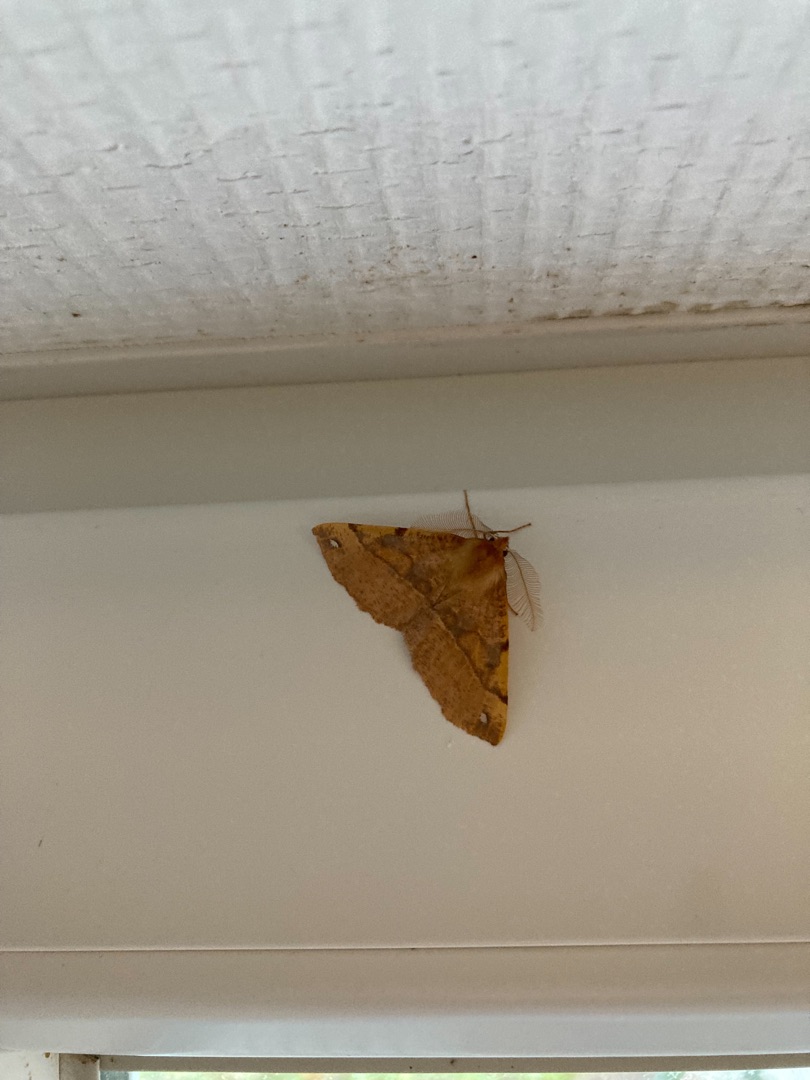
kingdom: Animalia
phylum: Arthropoda
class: Insecta
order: Lepidoptera
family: Geometridae
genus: Colotois
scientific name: Colotois pennaria
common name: Løvfaldsmåler
